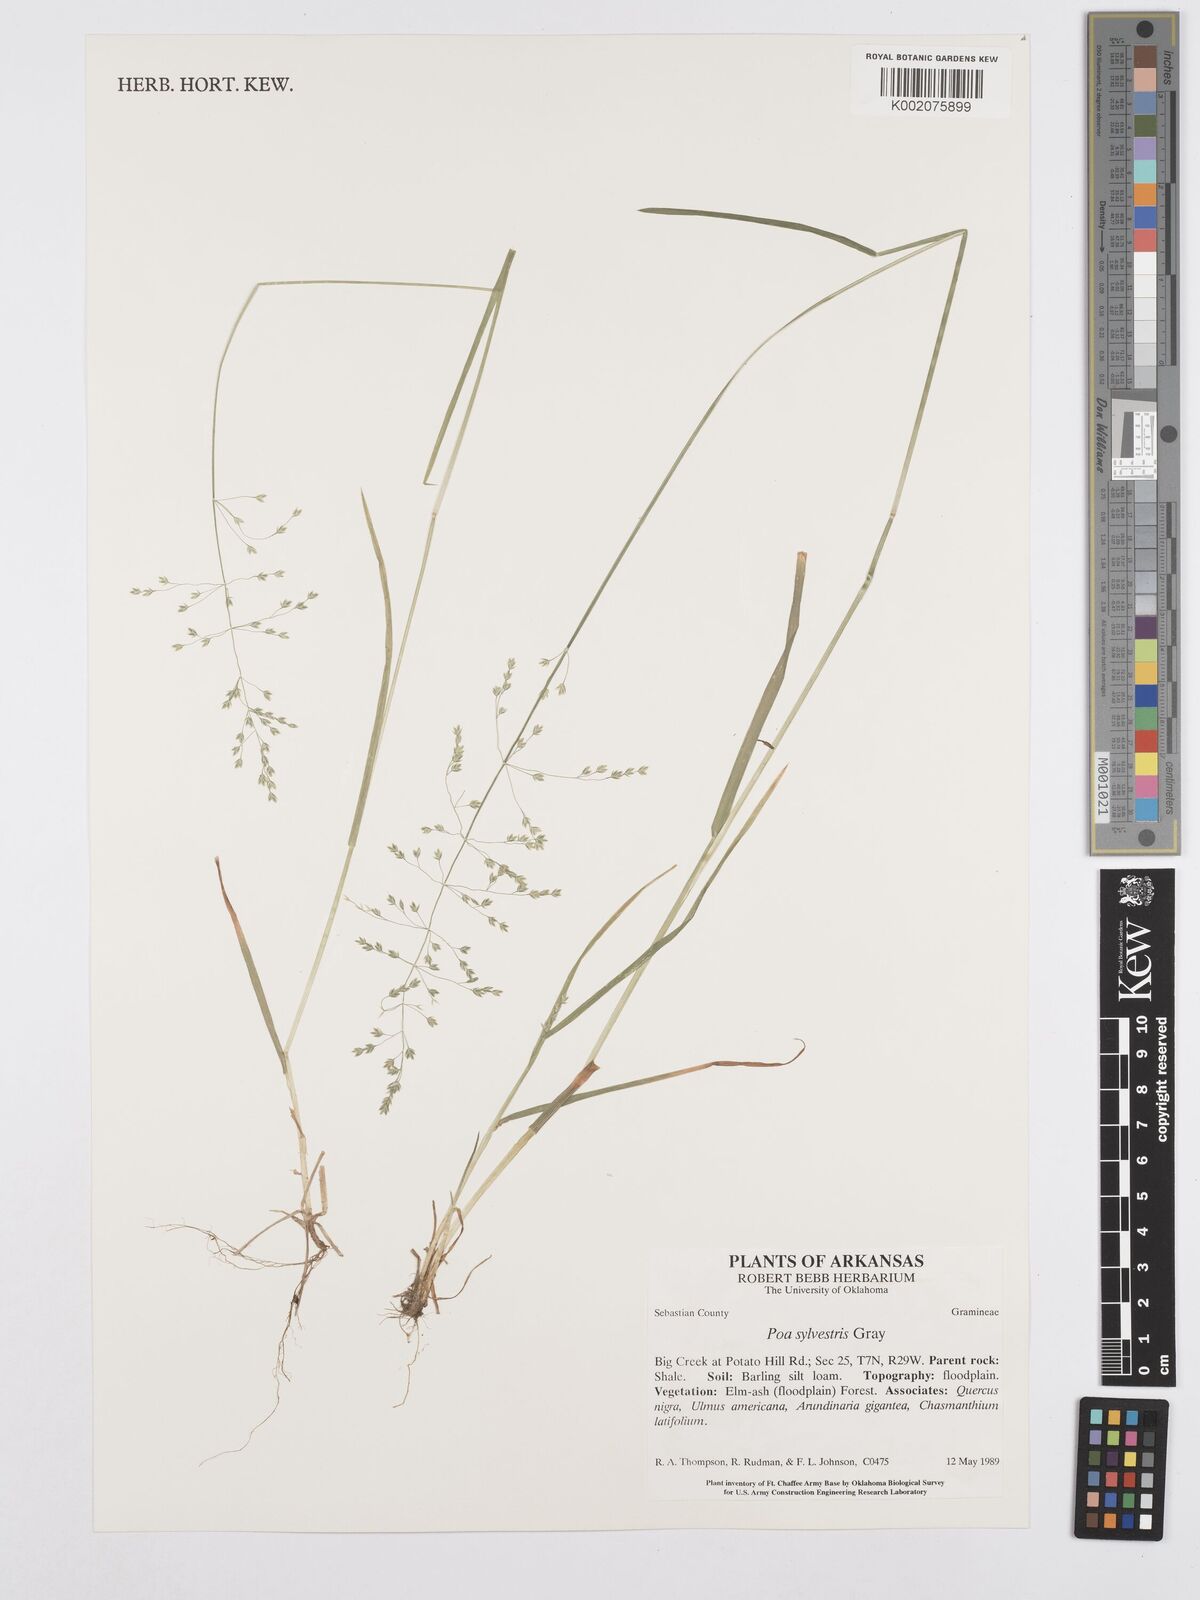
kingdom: Plantae
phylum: Tracheophyta
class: Liliopsida
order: Poales
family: Poaceae
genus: Poa
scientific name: Poa sylvestris
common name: North american woodland bluegrass
